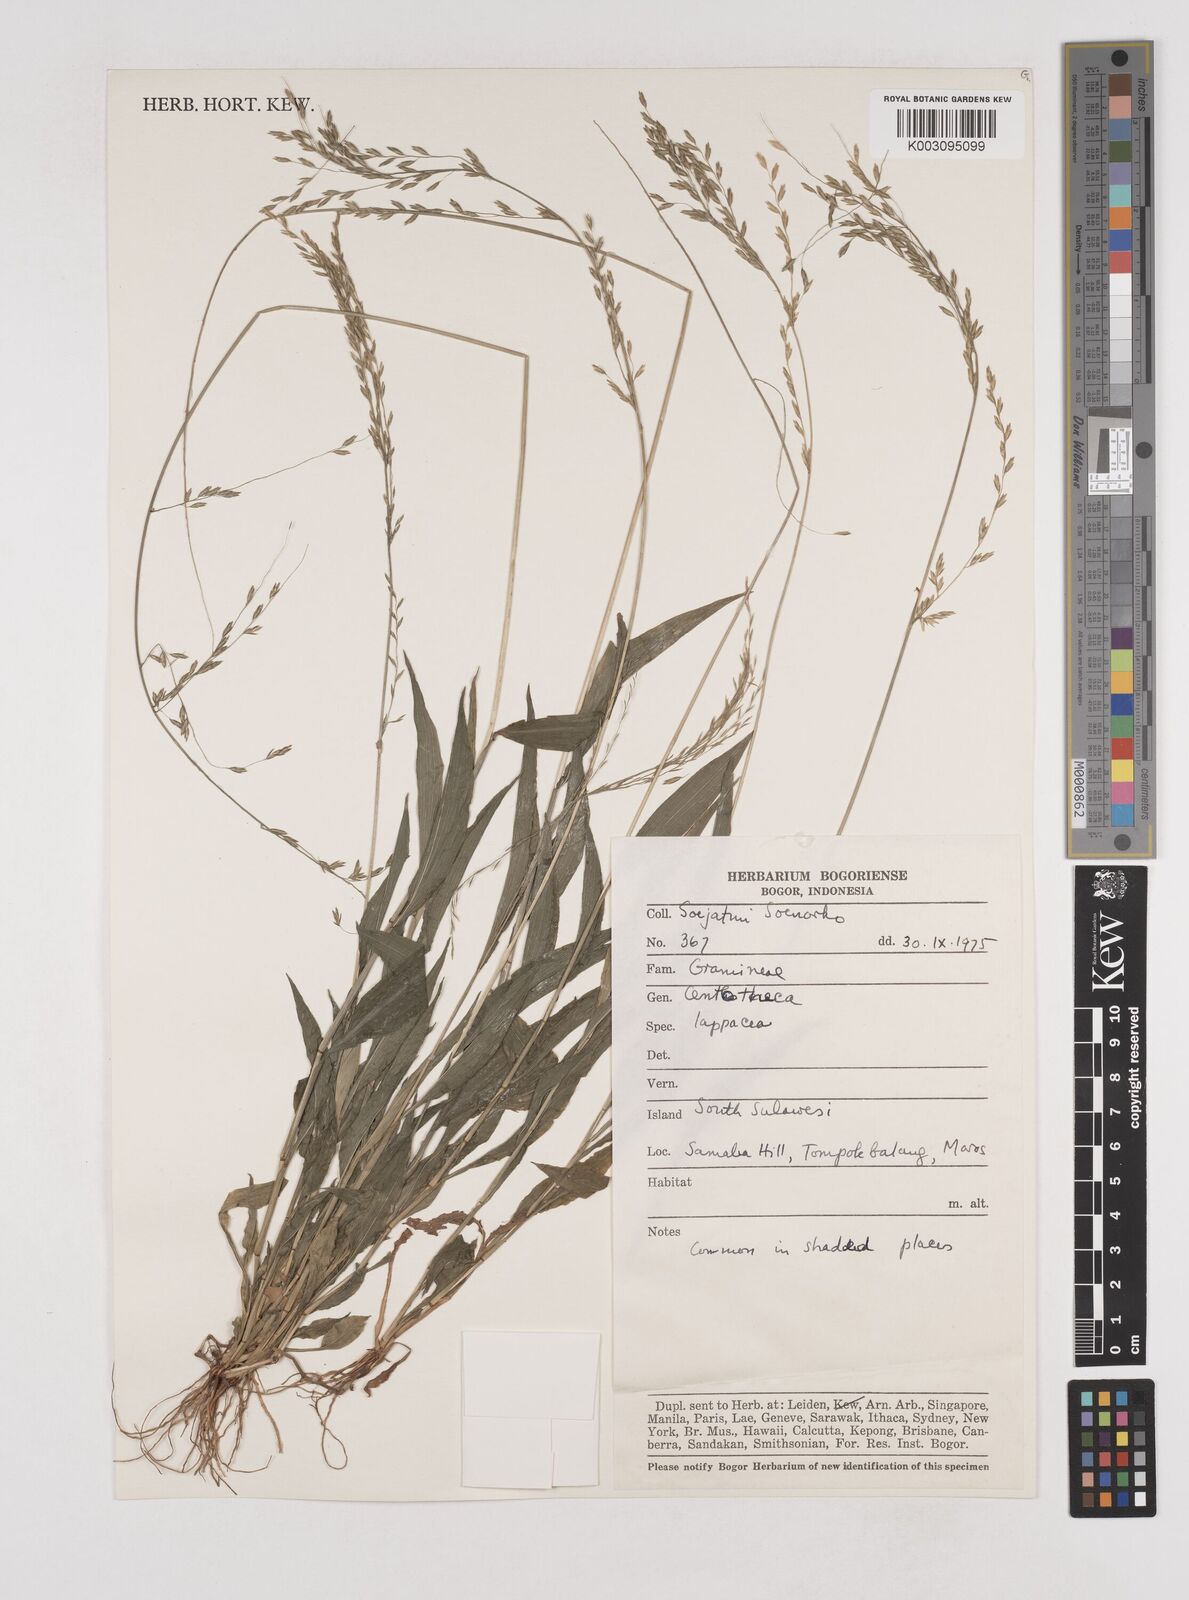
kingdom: Plantae
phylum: Tracheophyta
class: Liliopsida
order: Poales
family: Poaceae
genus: Centotheca
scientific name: Centotheca lappacea
